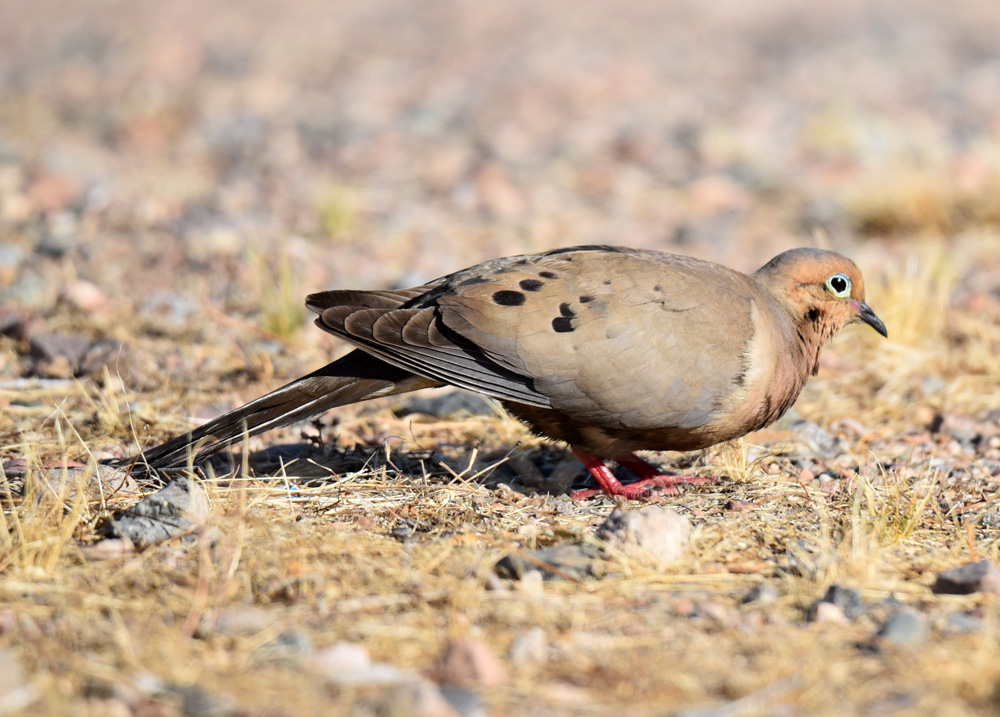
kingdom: Animalia
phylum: Chordata
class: Aves
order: Columbiformes
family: Columbidae
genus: Zenaida
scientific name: Zenaida macroura
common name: Mourning dove
